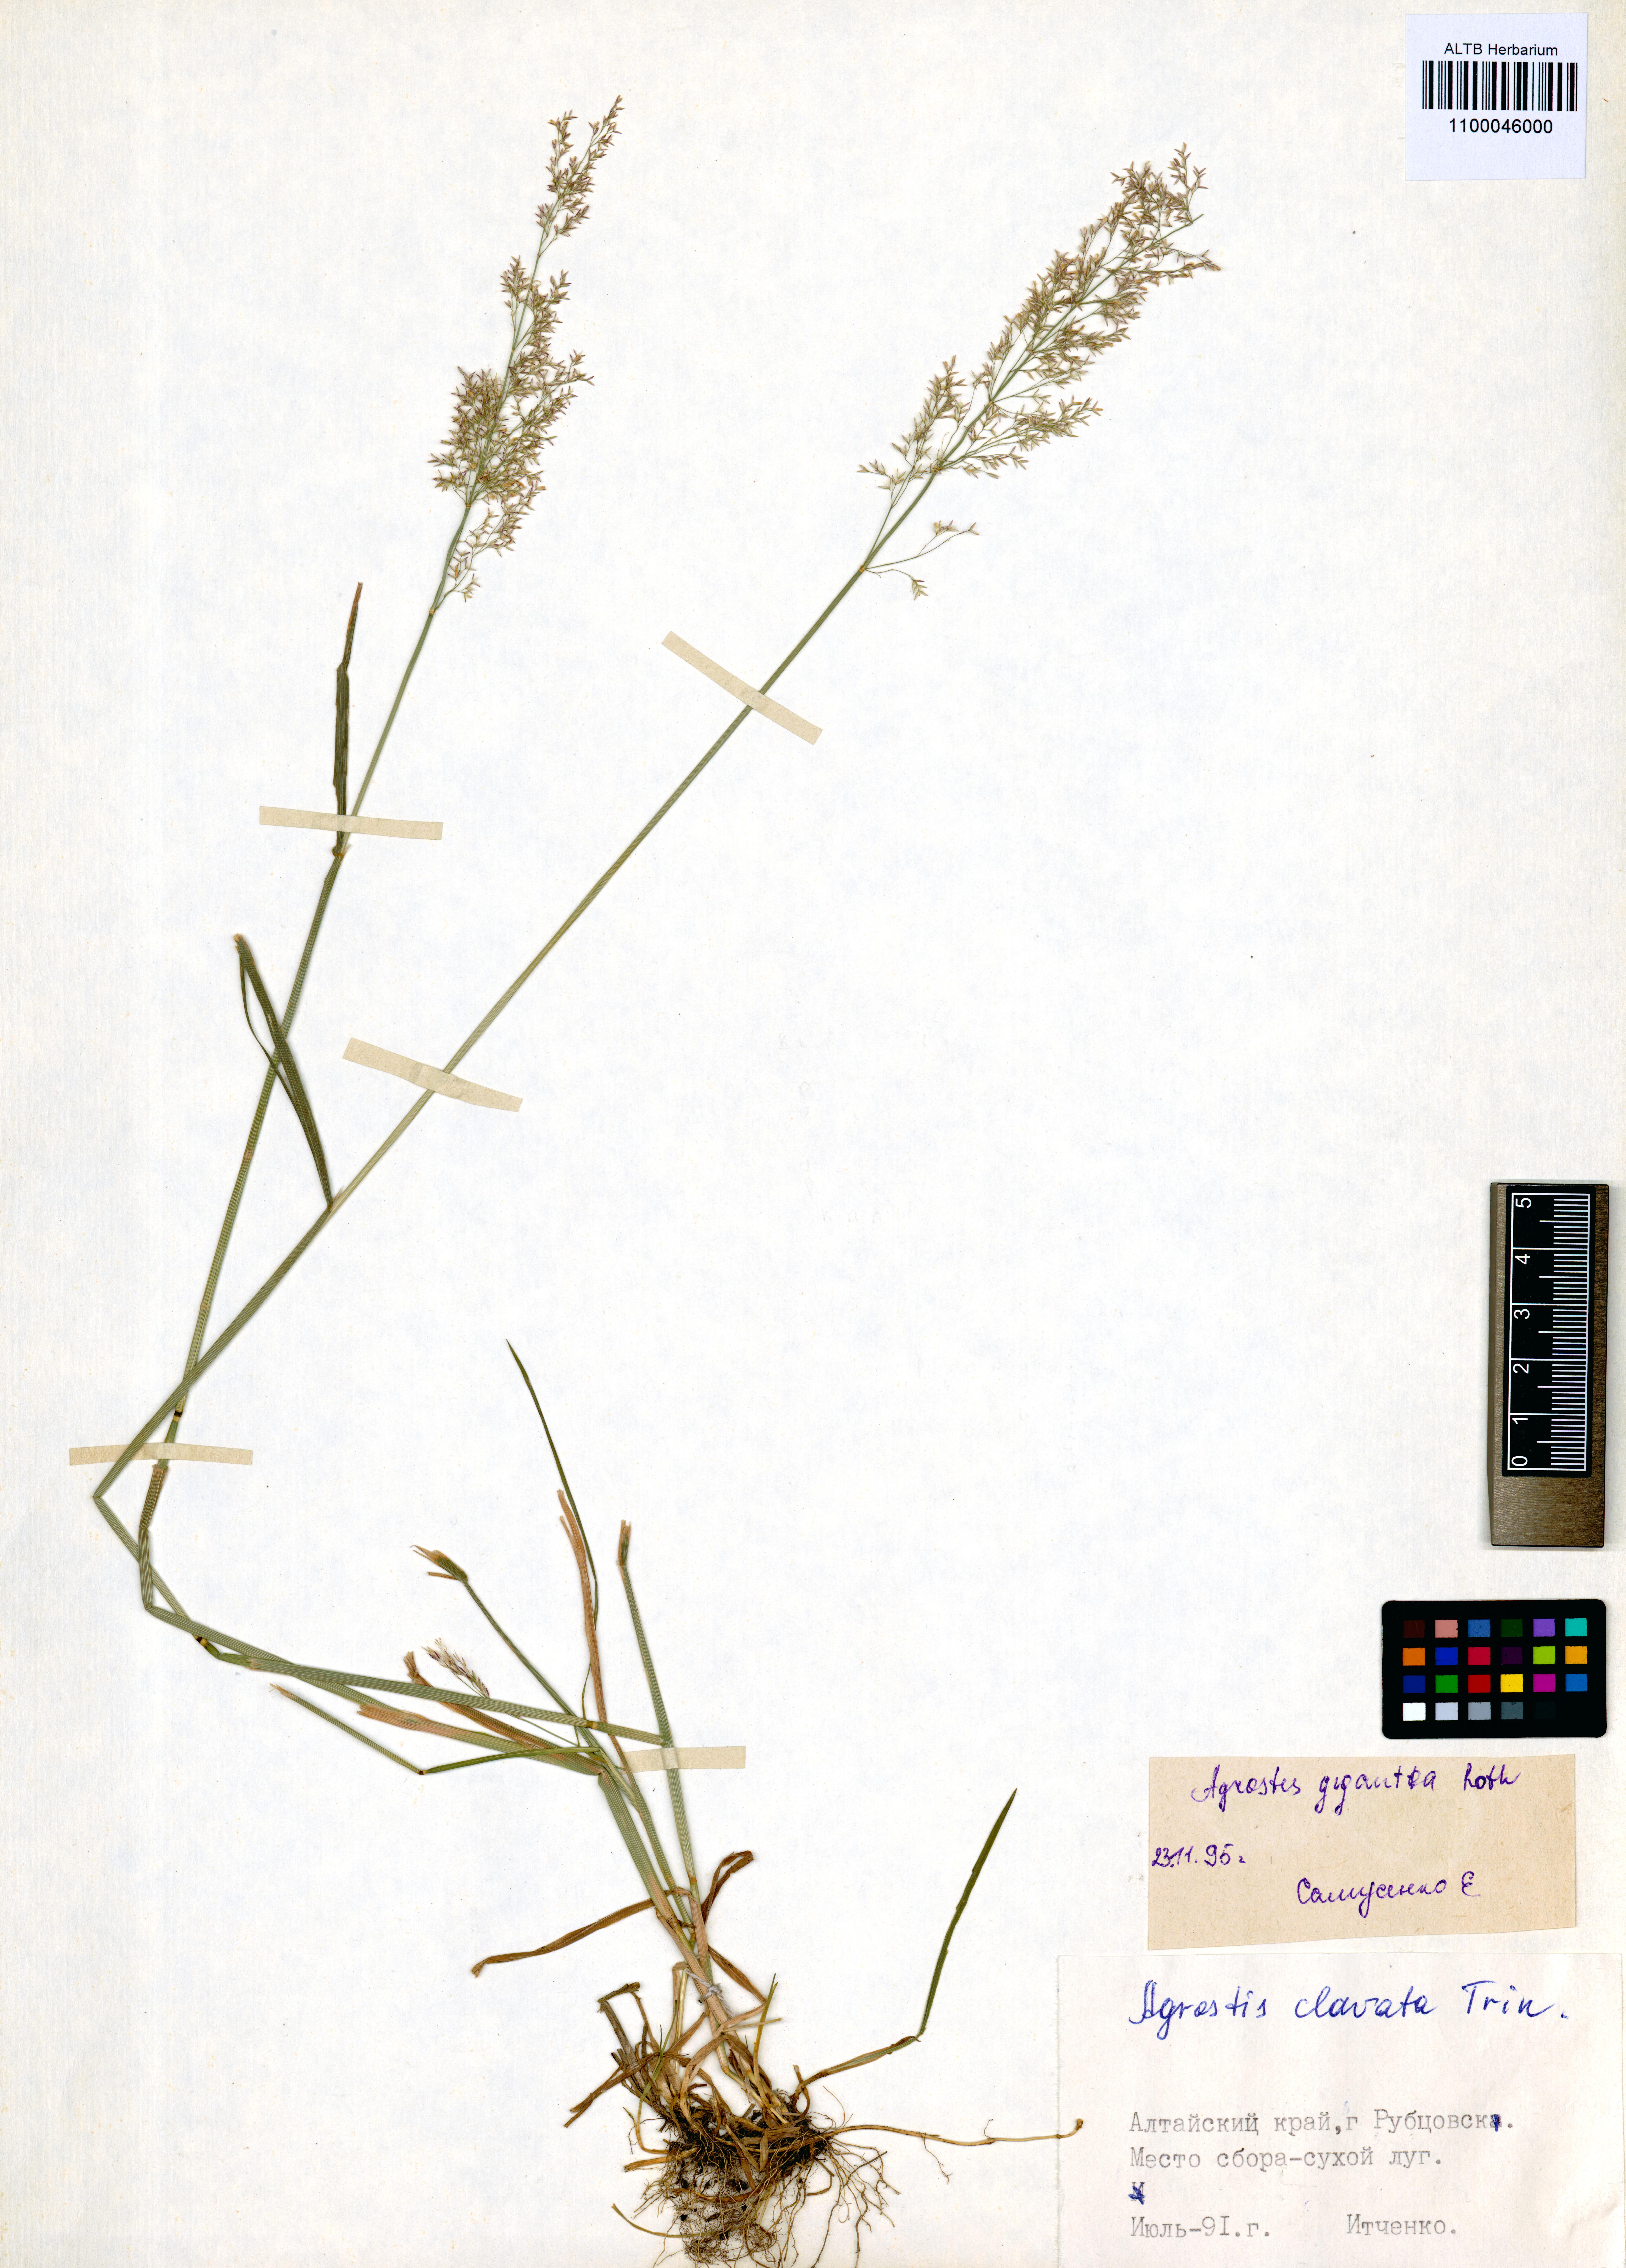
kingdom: Plantae
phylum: Tracheophyta
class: Liliopsida
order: Poales
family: Poaceae
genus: Agrostis
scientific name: Agrostis gigantea
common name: Black bent
